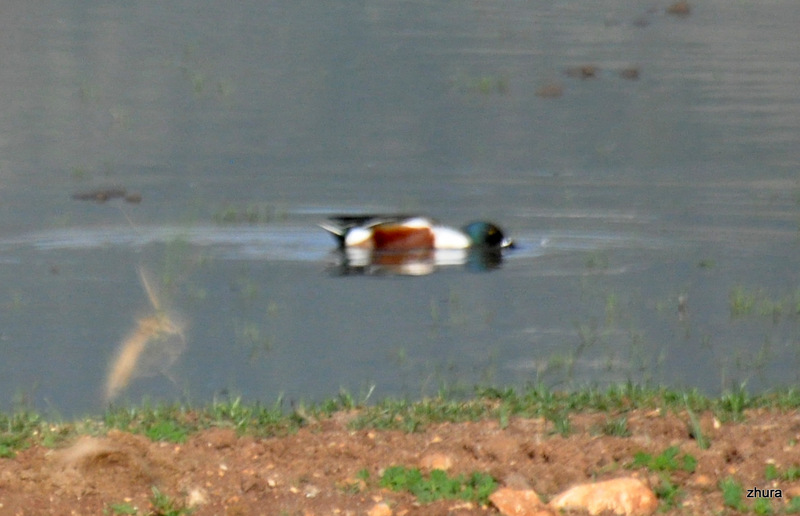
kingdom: Animalia
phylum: Chordata
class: Aves
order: Anseriformes
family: Anatidae
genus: Spatula
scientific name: Spatula clypeata
